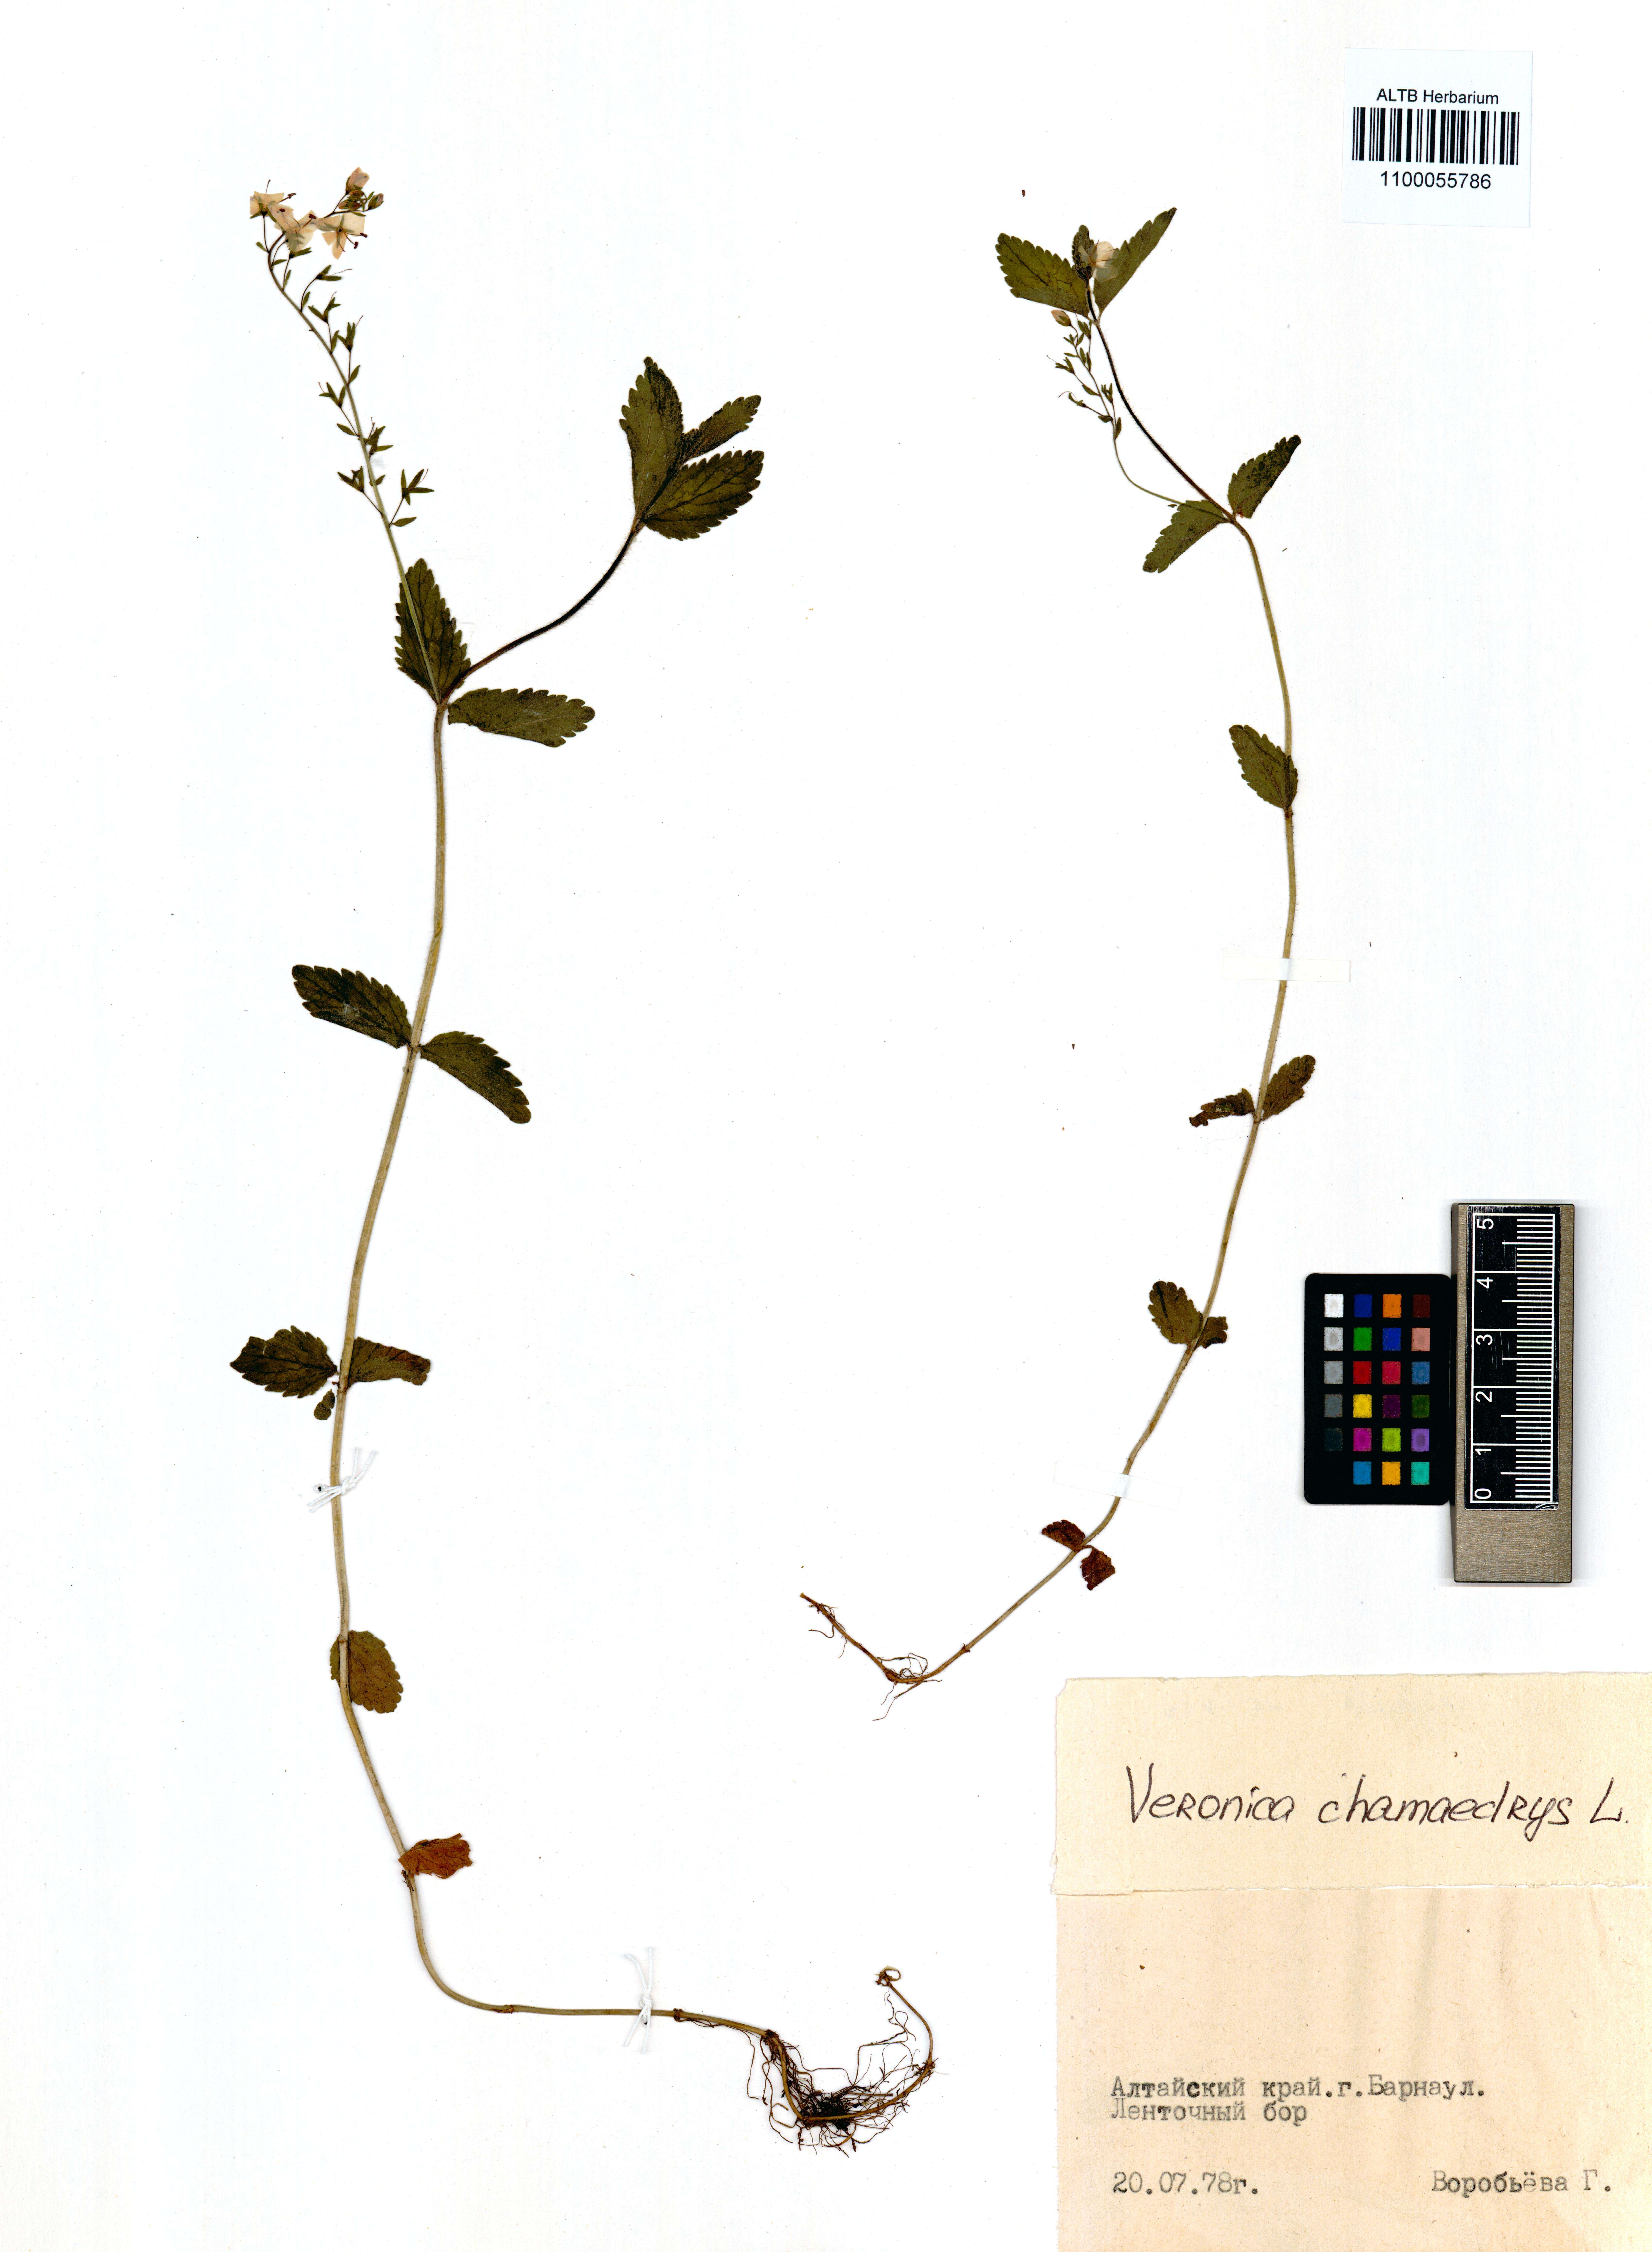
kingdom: Plantae
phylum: Tracheophyta
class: Magnoliopsida
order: Lamiales
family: Plantaginaceae
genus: Veronica
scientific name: Veronica chamaedrys
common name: Germander speedwell
